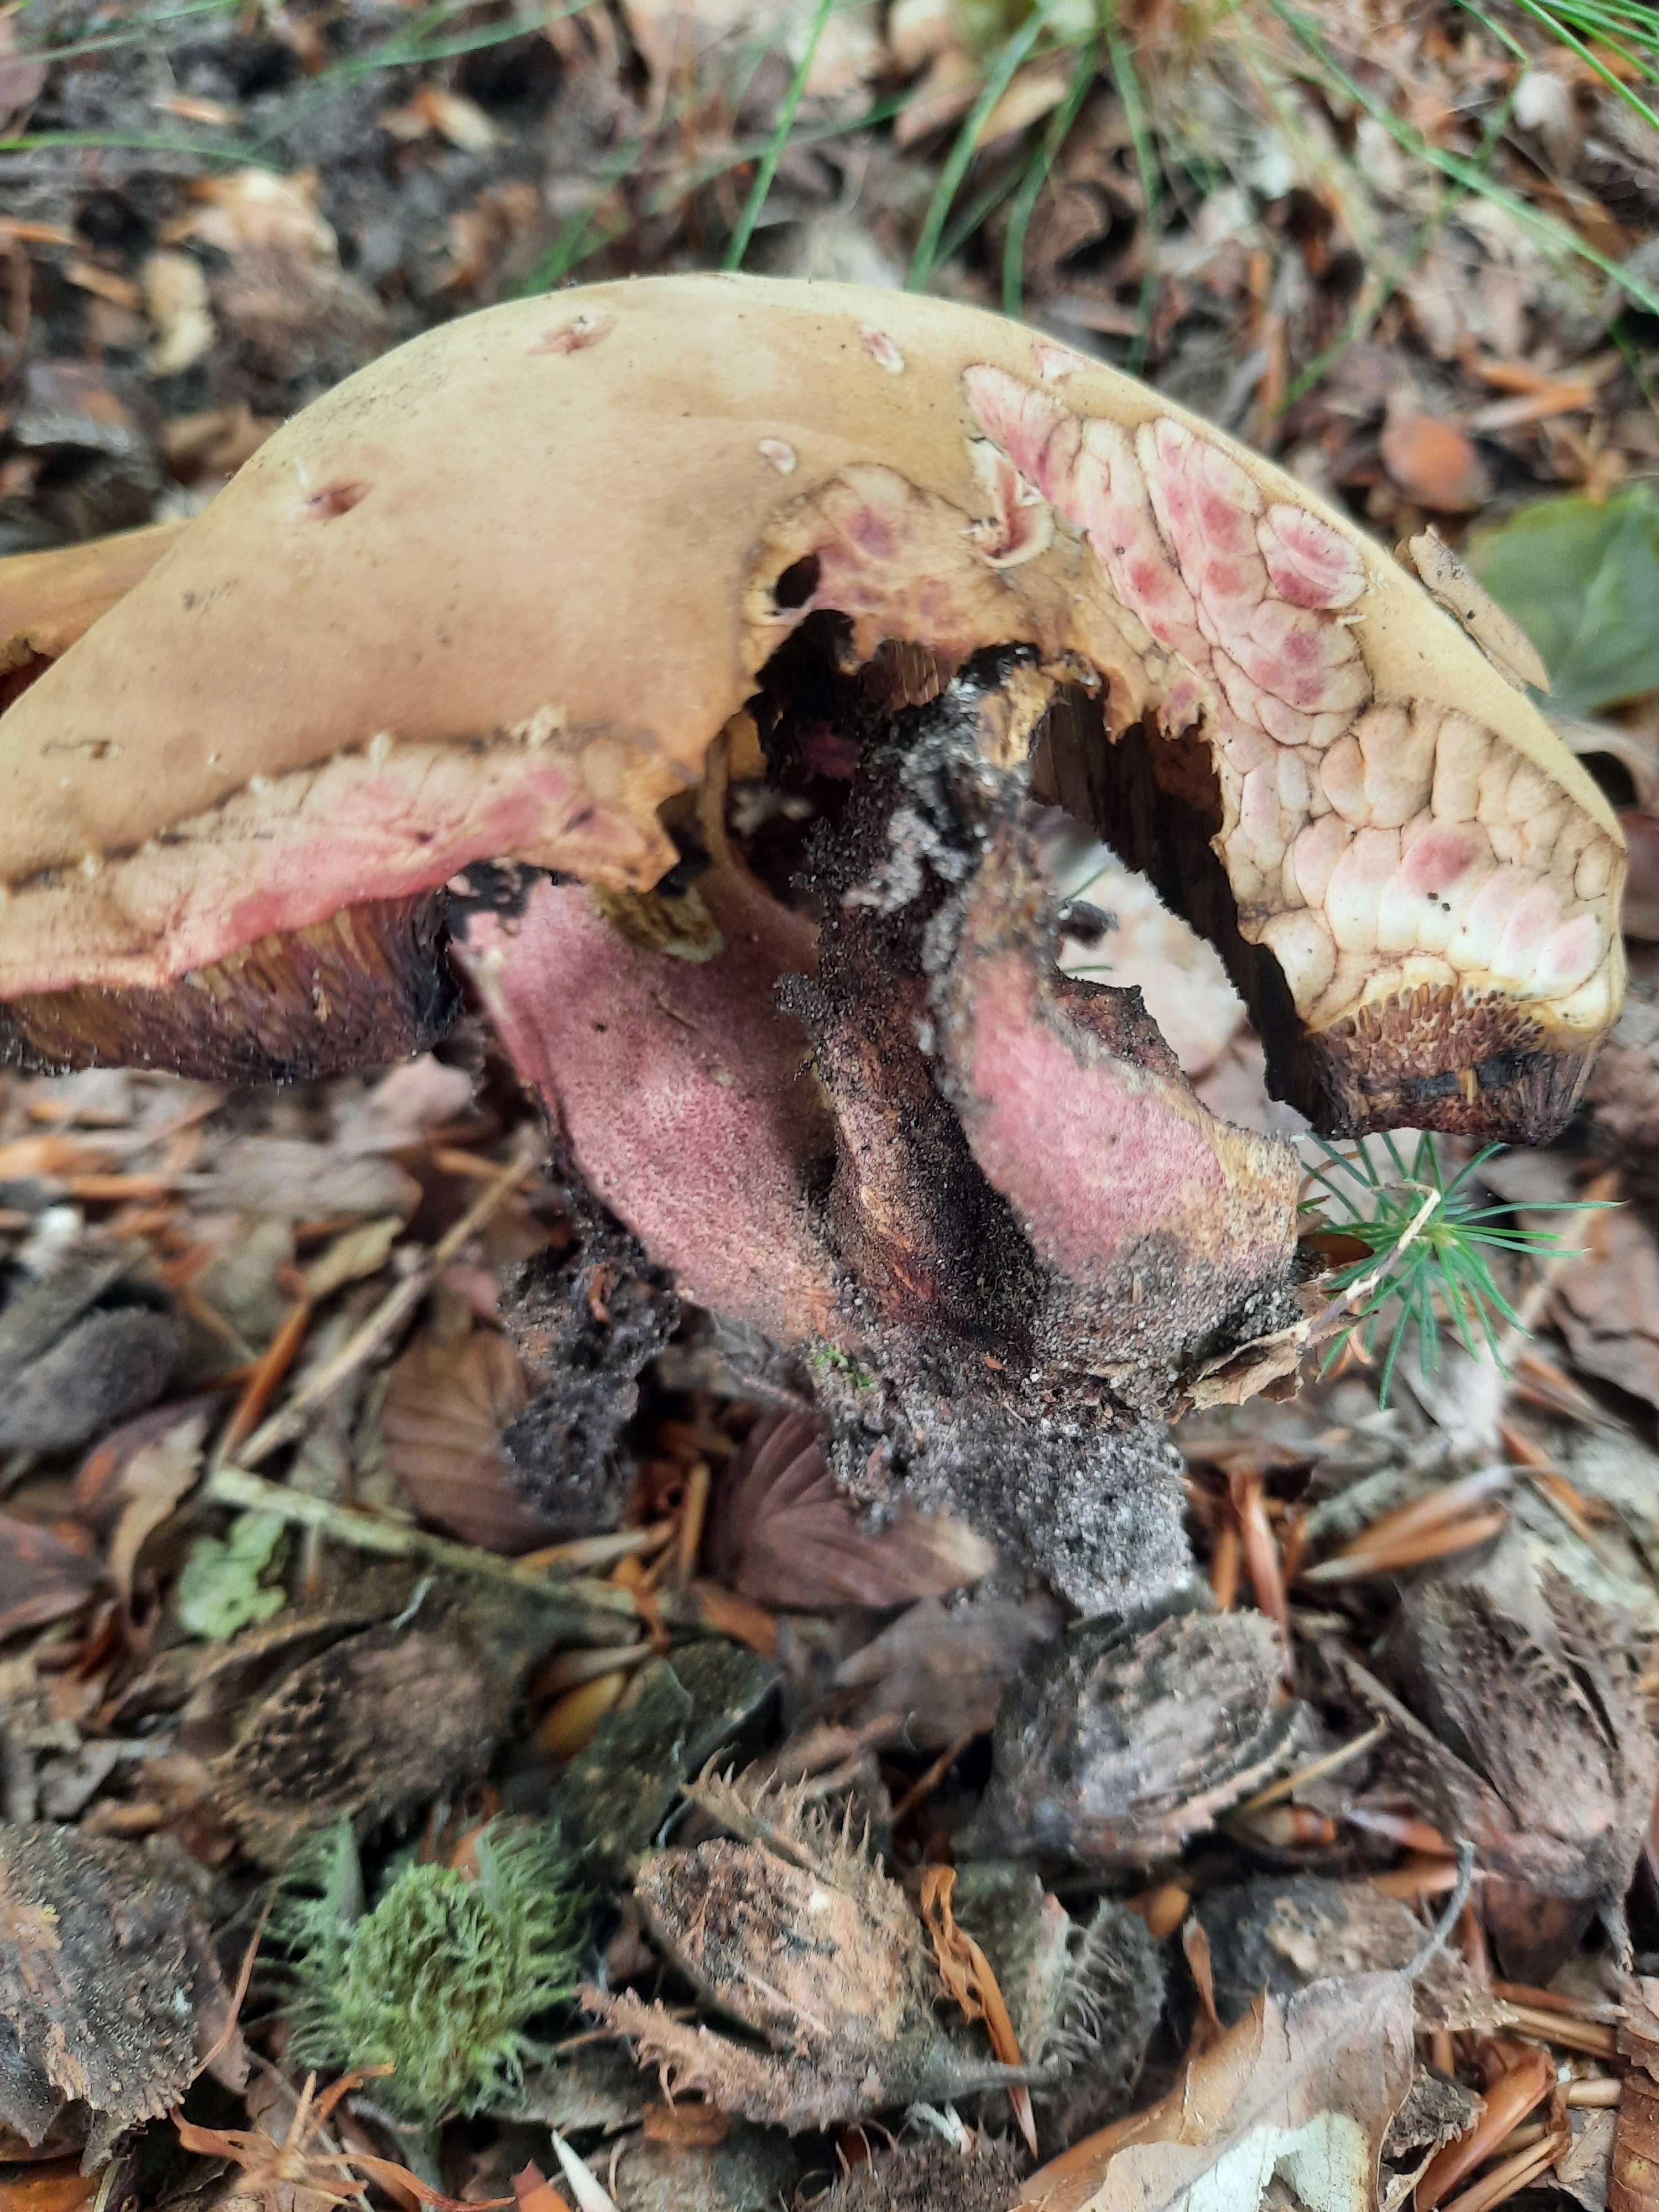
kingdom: Fungi
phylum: Basidiomycota
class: Agaricomycetes
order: Boletales
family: Boletaceae
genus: Neoboletus
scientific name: Neoboletus erythropus
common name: punktstokket indigorørhat
